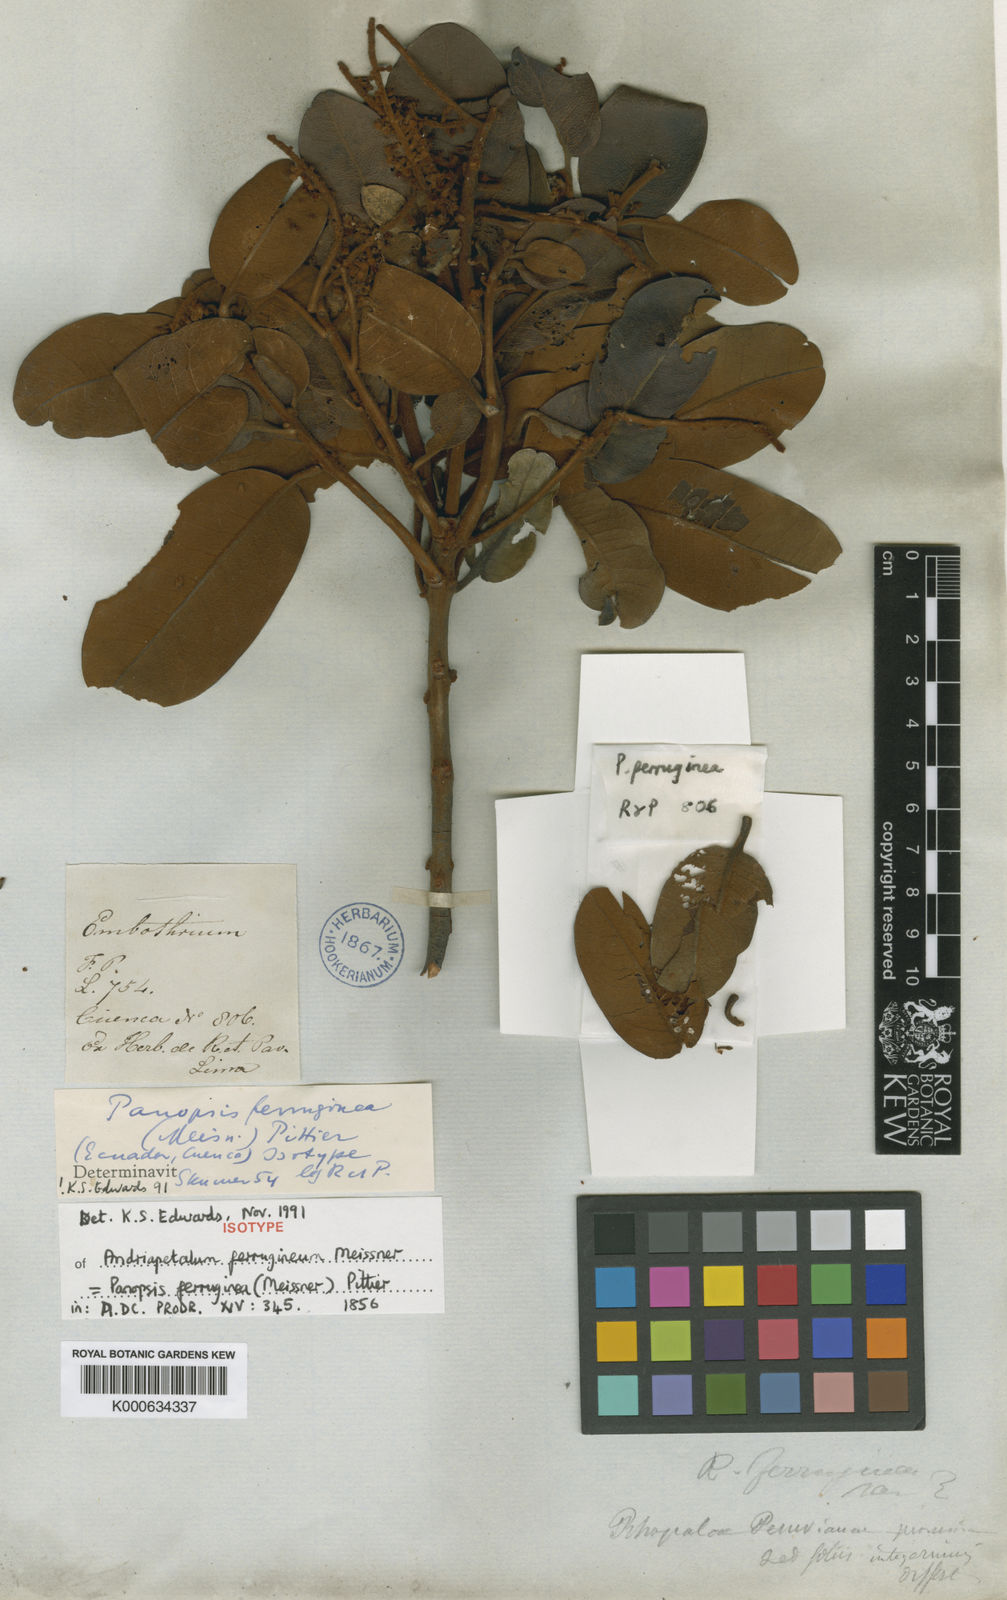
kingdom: Plantae
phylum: Tracheophyta
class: Magnoliopsida
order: Proteales
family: Proteaceae
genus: Roupala
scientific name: Roupala ferruginea
